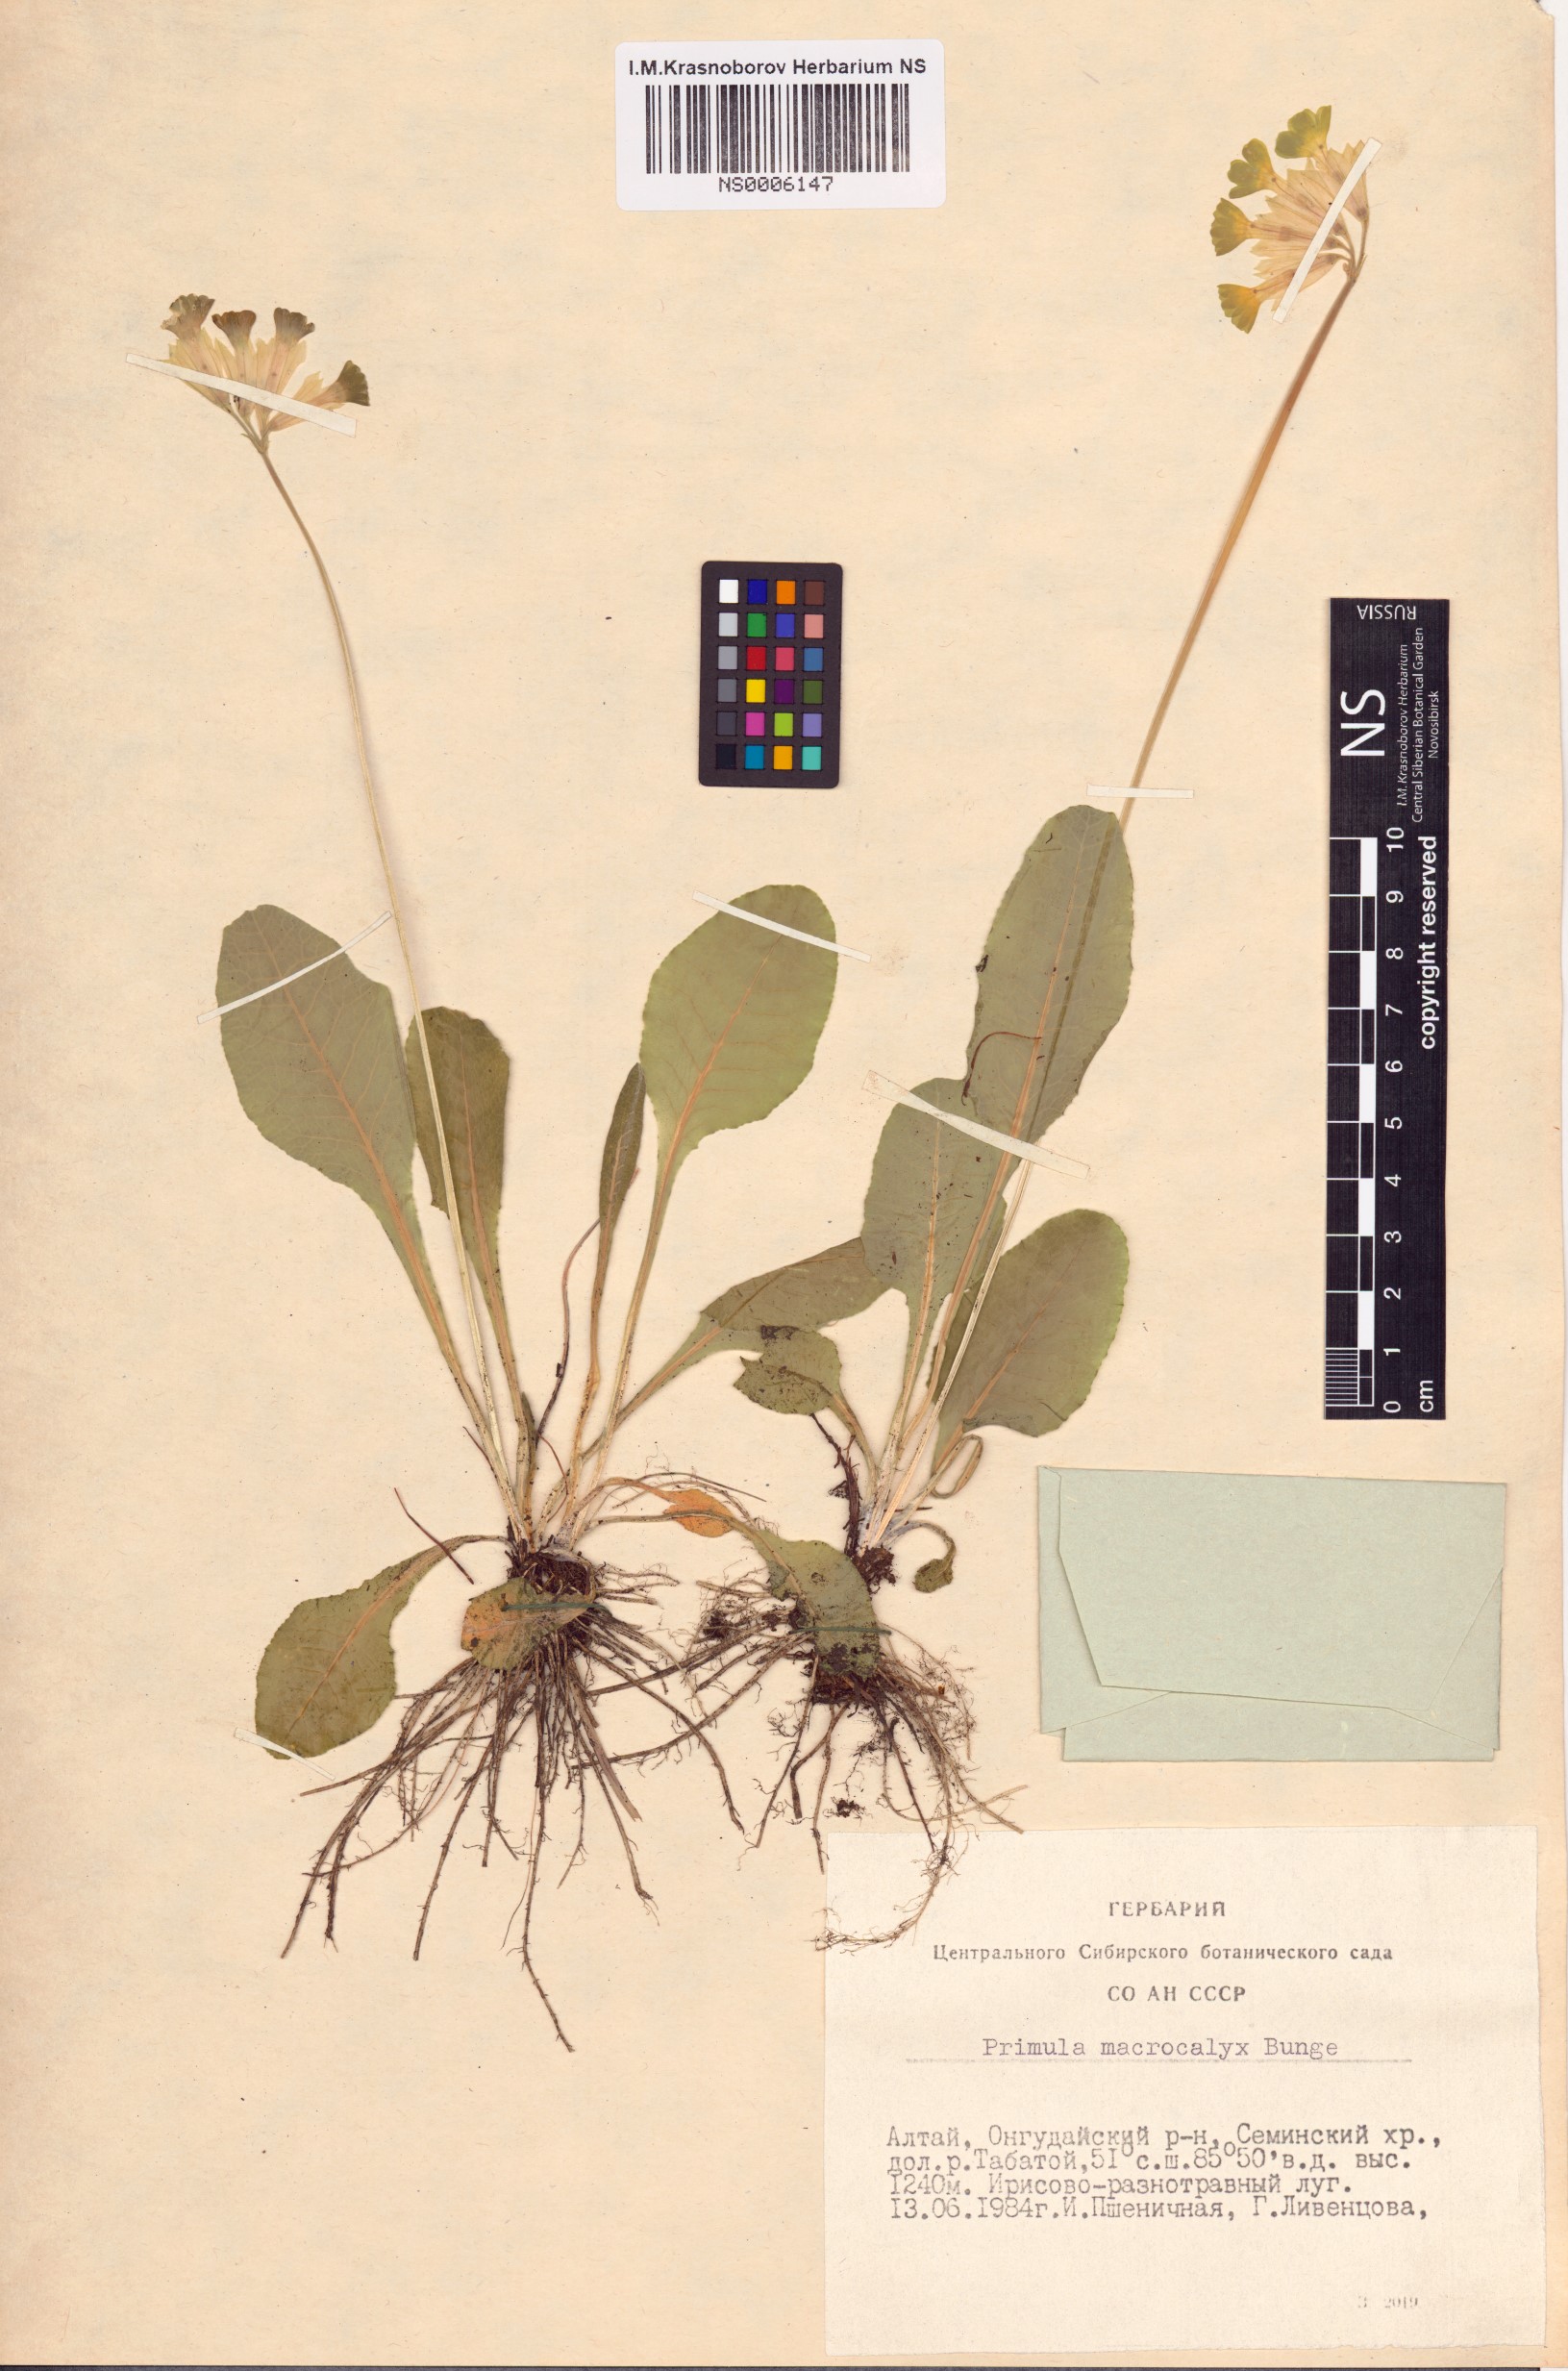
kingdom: Plantae
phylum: Tracheophyta
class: Magnoliopsida
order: Ericales
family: Primulaceae
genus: Primula
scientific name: Primula veris
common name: Cowslip
